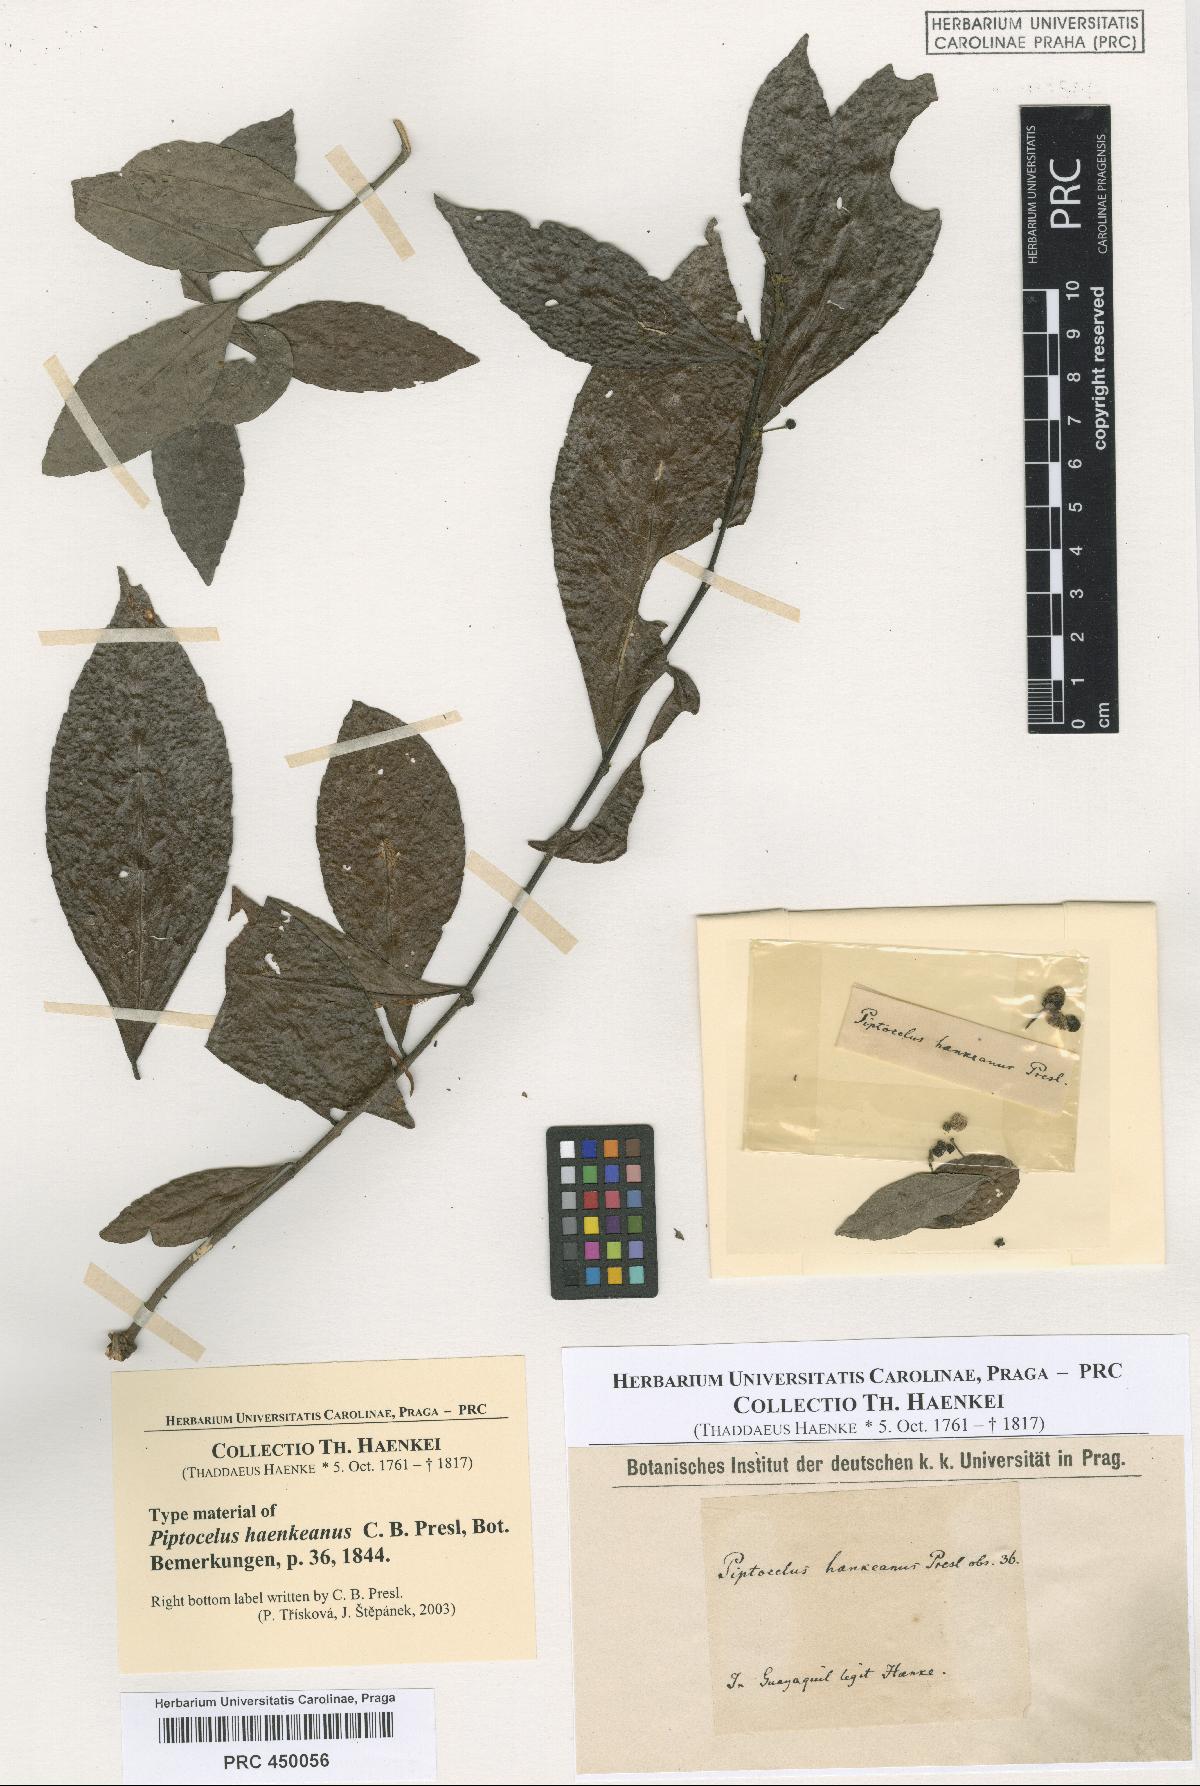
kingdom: Plantae
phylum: Tracheophyta
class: Magnoliopsida
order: Sapindales
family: Anacardiaceae
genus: Piptocelus
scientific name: Piptocelus haenkeanus
